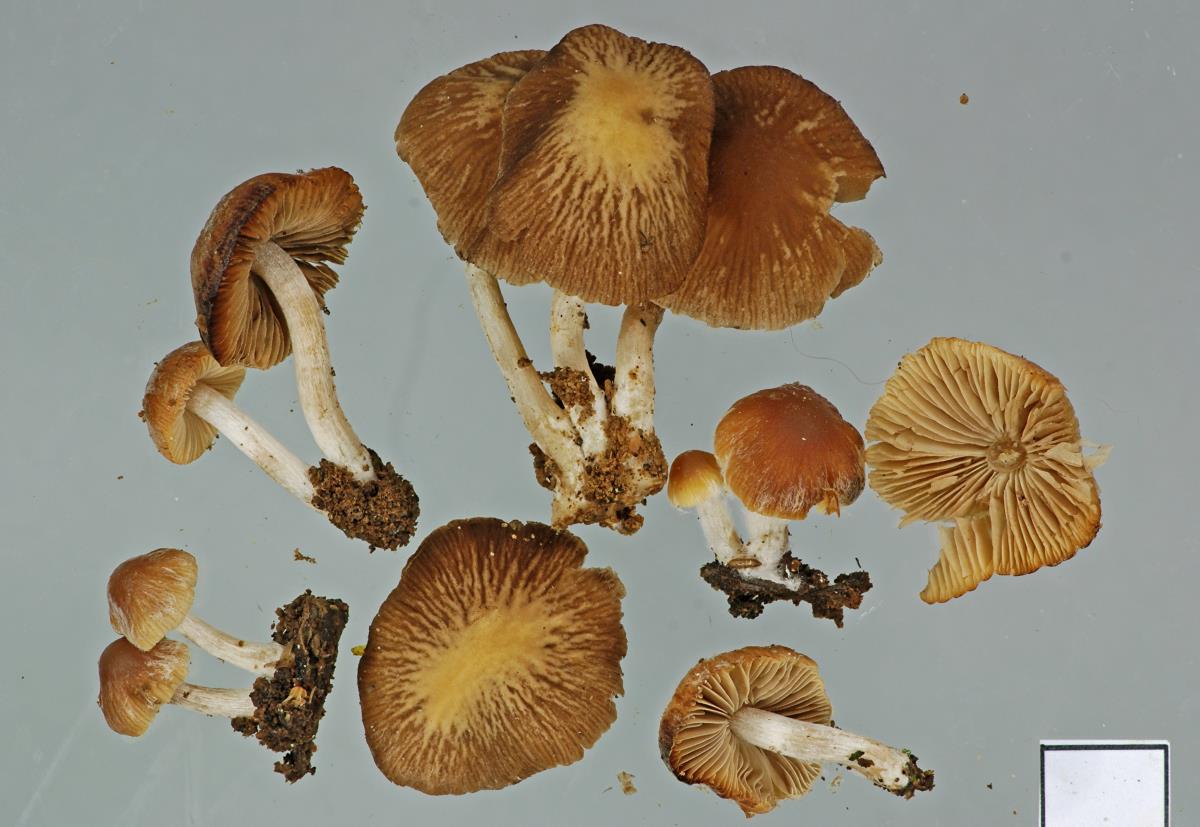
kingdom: Fungi
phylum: Basidiomycota
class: Agaricomycetes
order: Agaricales
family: Psathyrellaceae
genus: Psathyrella
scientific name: Psathyrella
